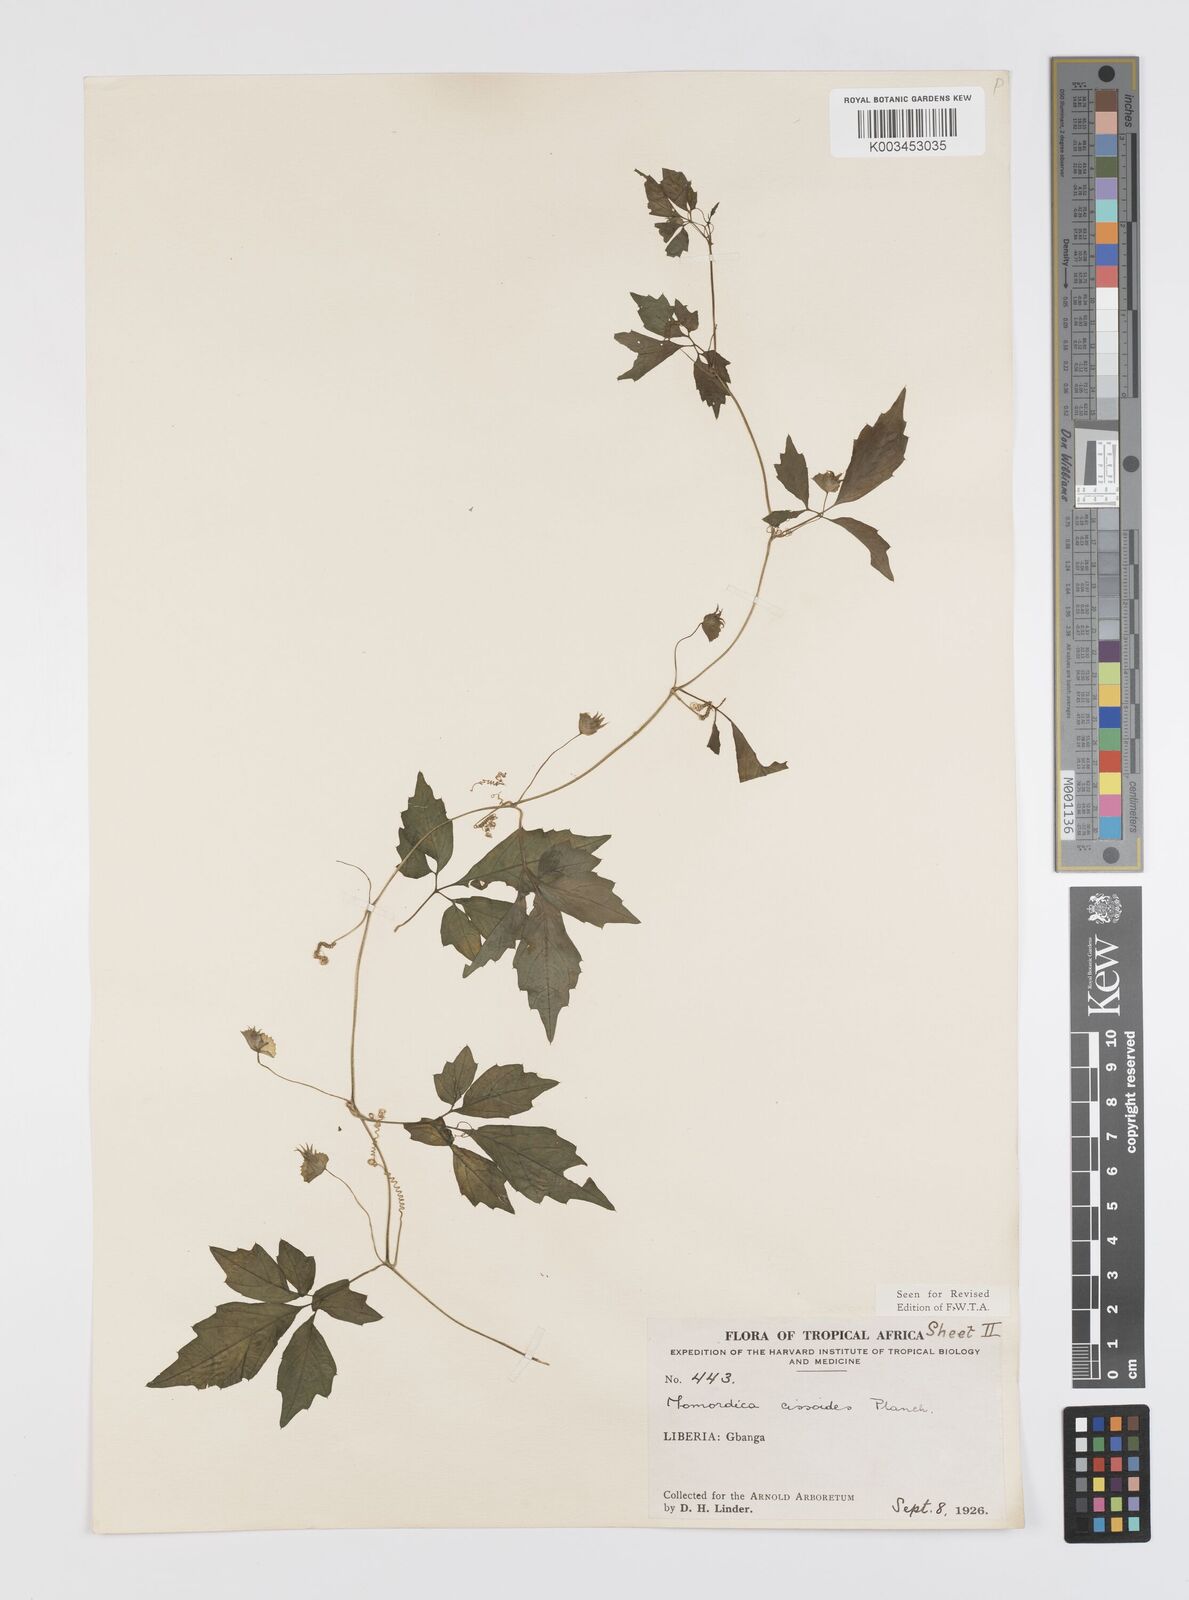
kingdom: Plantae
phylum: Tracheophyta
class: Magnoliopsida
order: Cucurbitales
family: Cucurbitaceae
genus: Momordica
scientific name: Momordica cissoides
